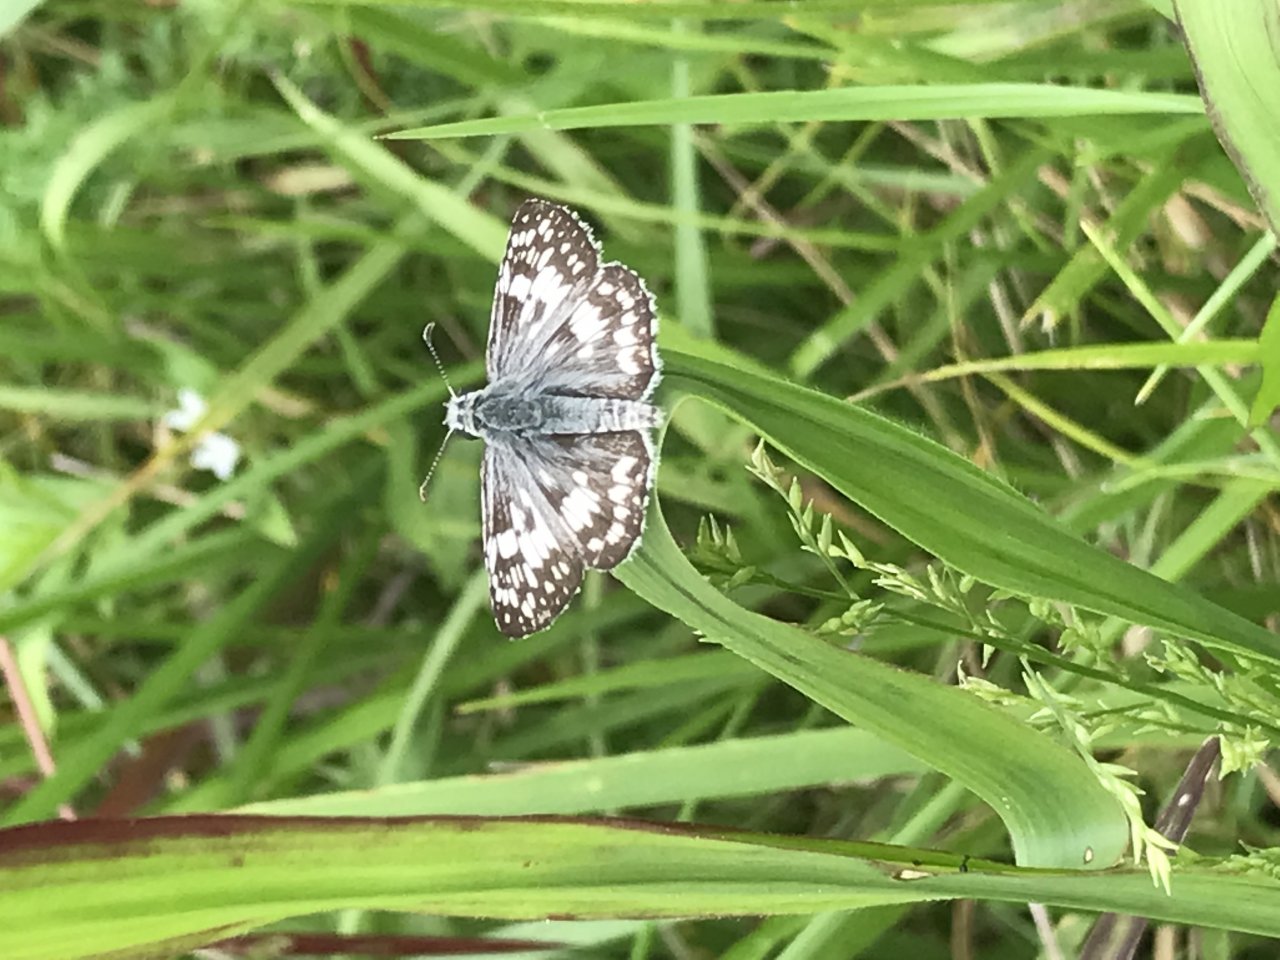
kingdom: Animalia
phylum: Arthropoda
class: Insecta
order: Lepidoptera
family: Hesperiidae
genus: Pyrgus
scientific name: Pyrgus communis
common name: Common Checkered-Skipper
